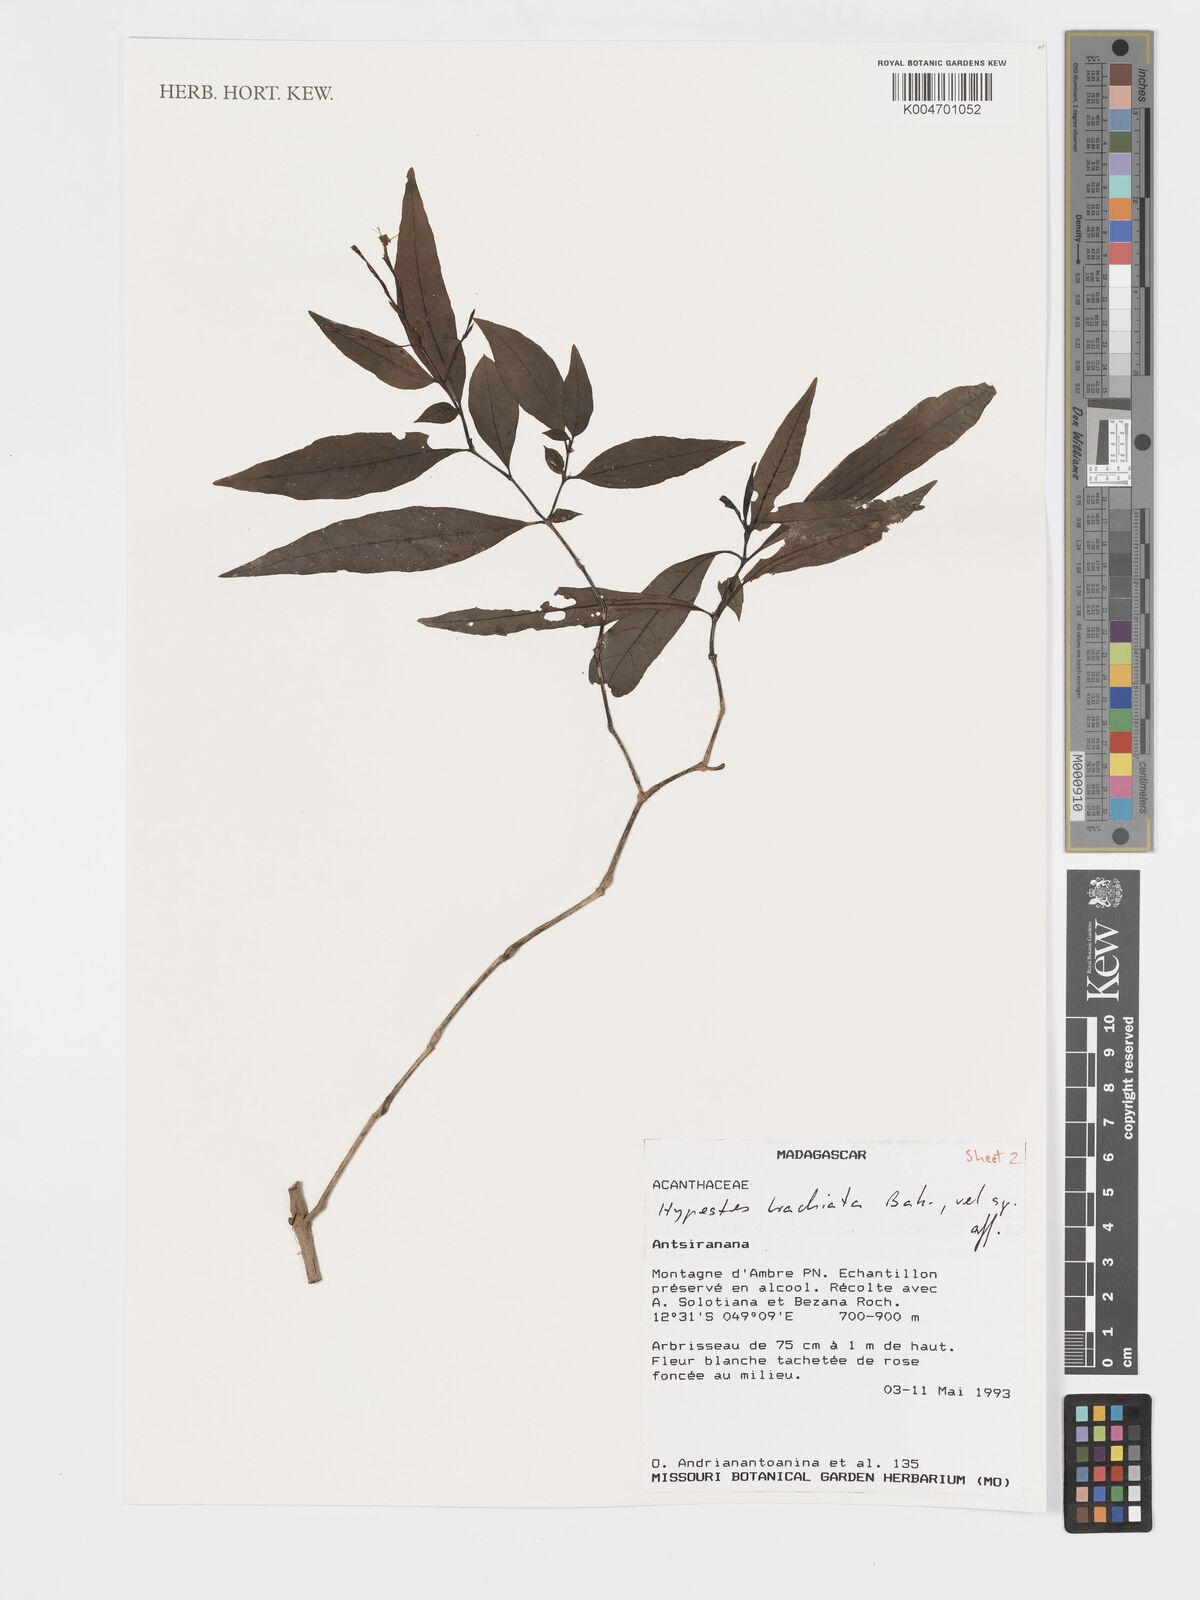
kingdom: Plantae
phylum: Tracheophyta
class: Magnoliopsida
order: Lamiales
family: Acanthaceae
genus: Hypoestes
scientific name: Hypoestes
